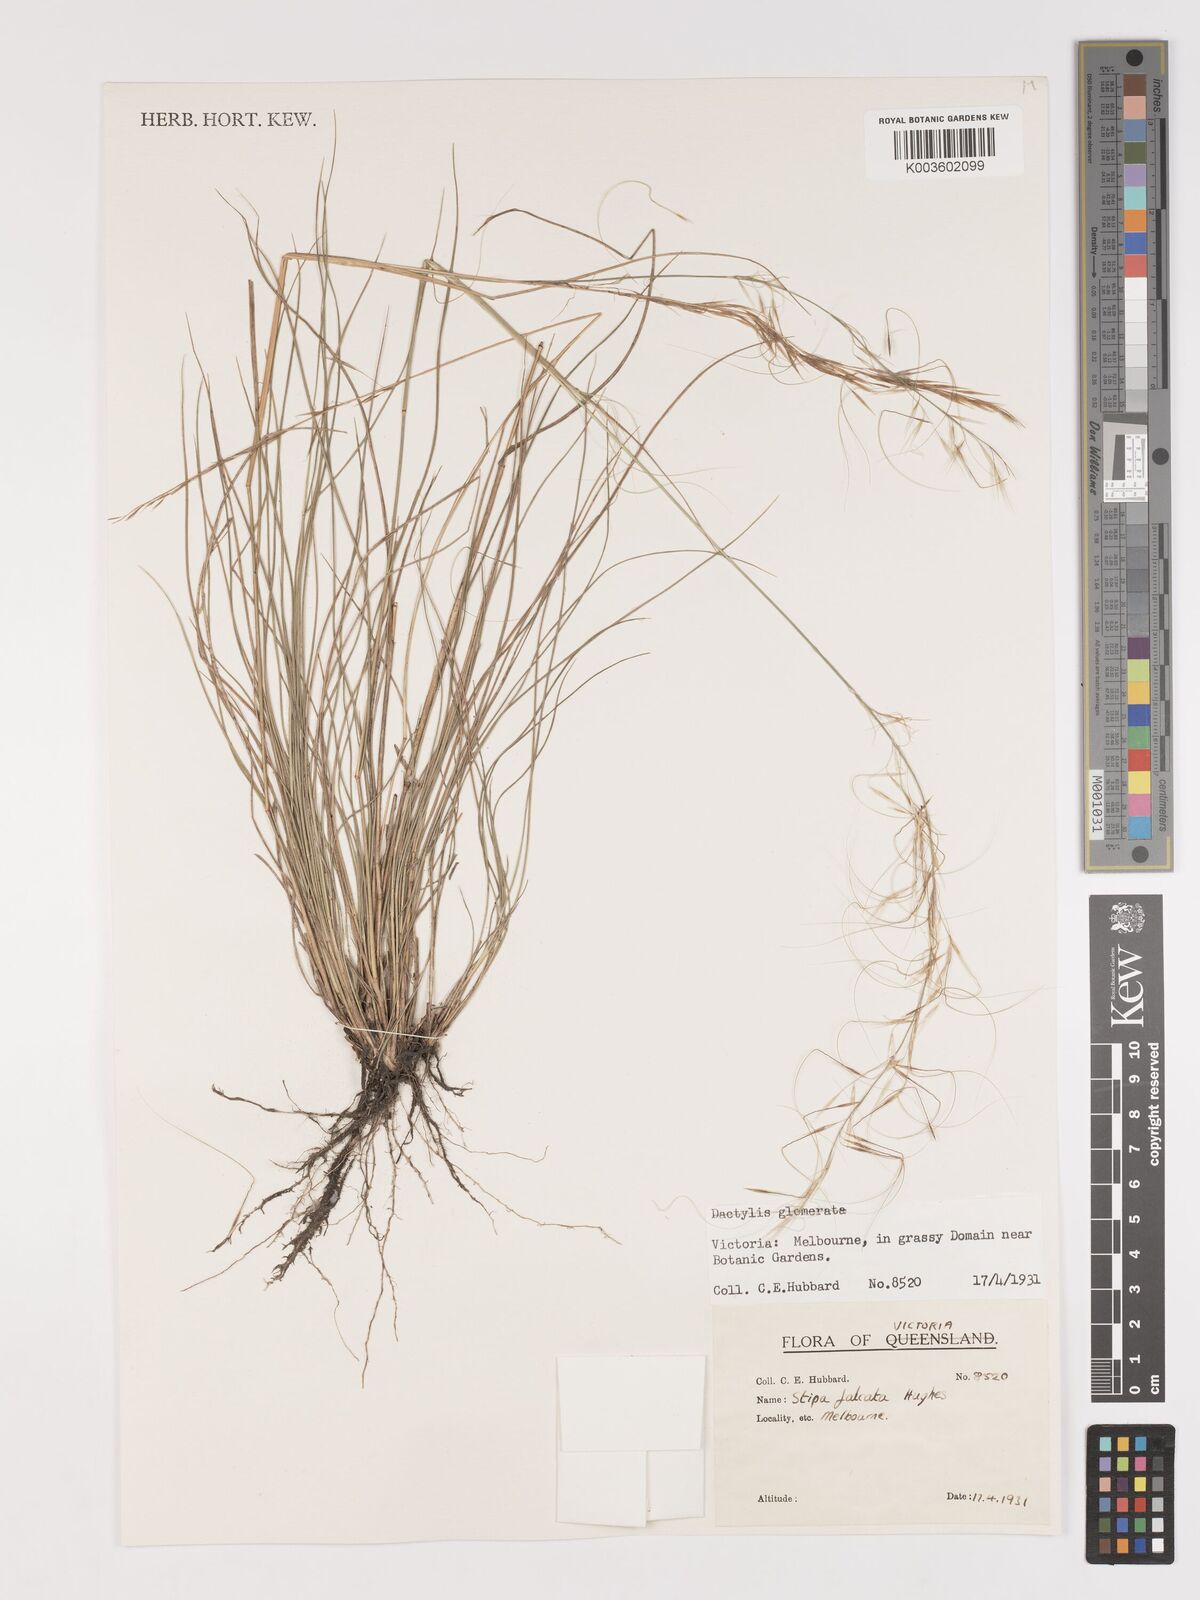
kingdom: Plantae
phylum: Tracheophyta
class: Liliopsida
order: Poales
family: Poaceae
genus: Austrostipa
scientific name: Austrostipa scabra
